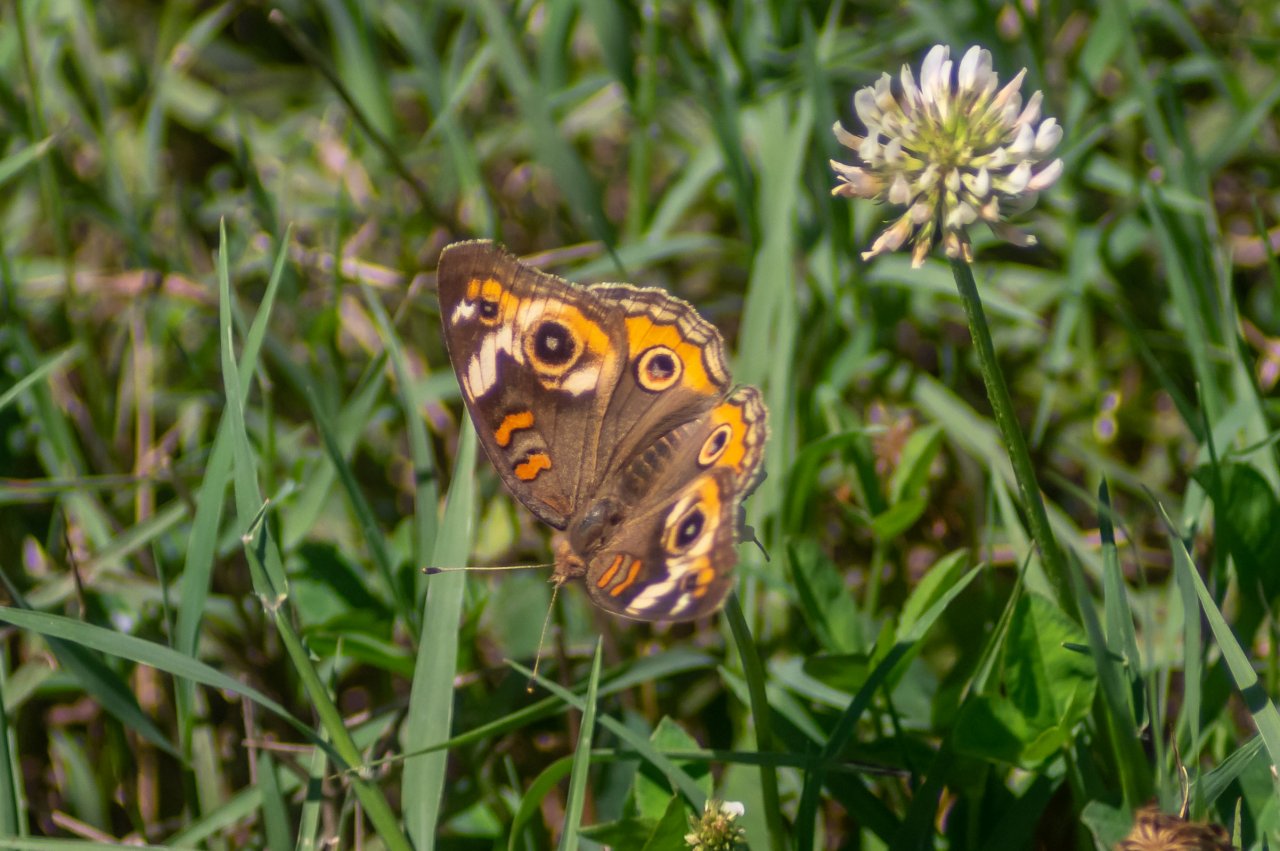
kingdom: Animalia
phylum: Arthropoda
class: Insecta
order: Lepidoptera
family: Nymphalidae
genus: Junonia
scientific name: Junonia coenia
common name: Common Buckeye
